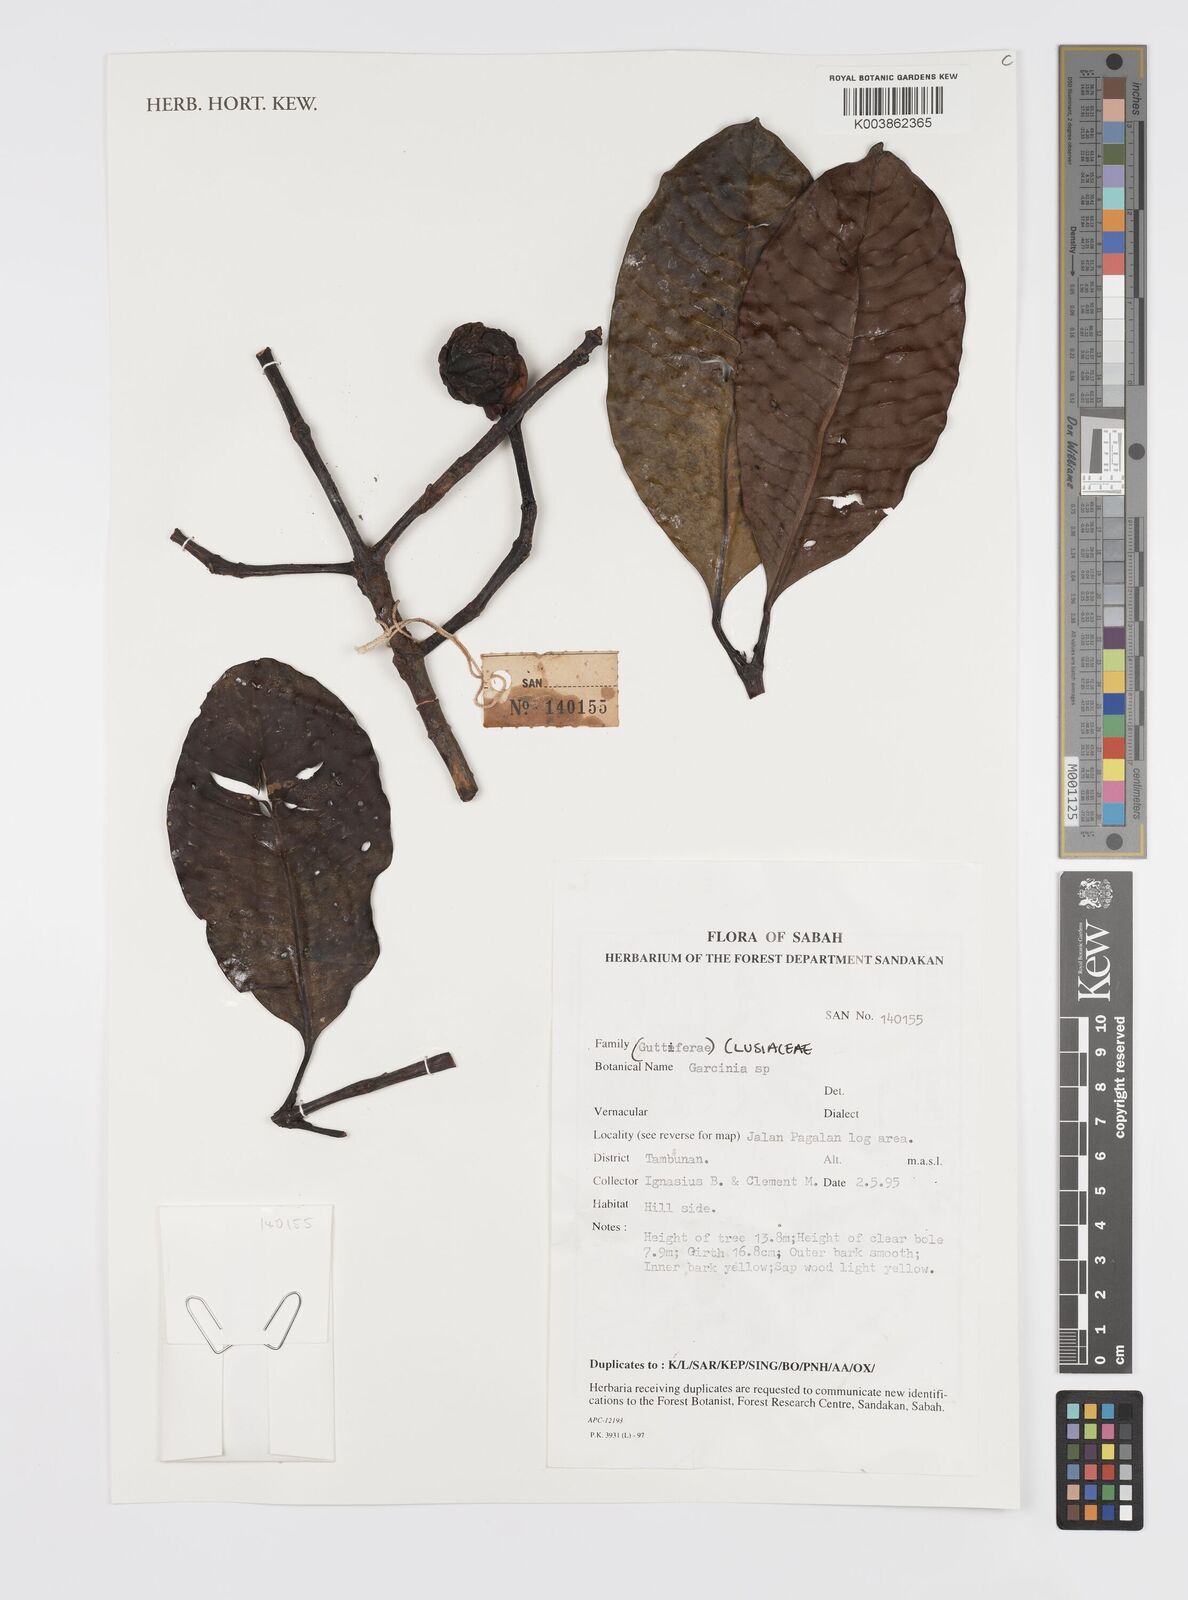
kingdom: Plantae
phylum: Tracheophyta
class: Magnoliopsida
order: Malpighiales
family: Clusiaceae
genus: Garcinia
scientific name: Garcinia
